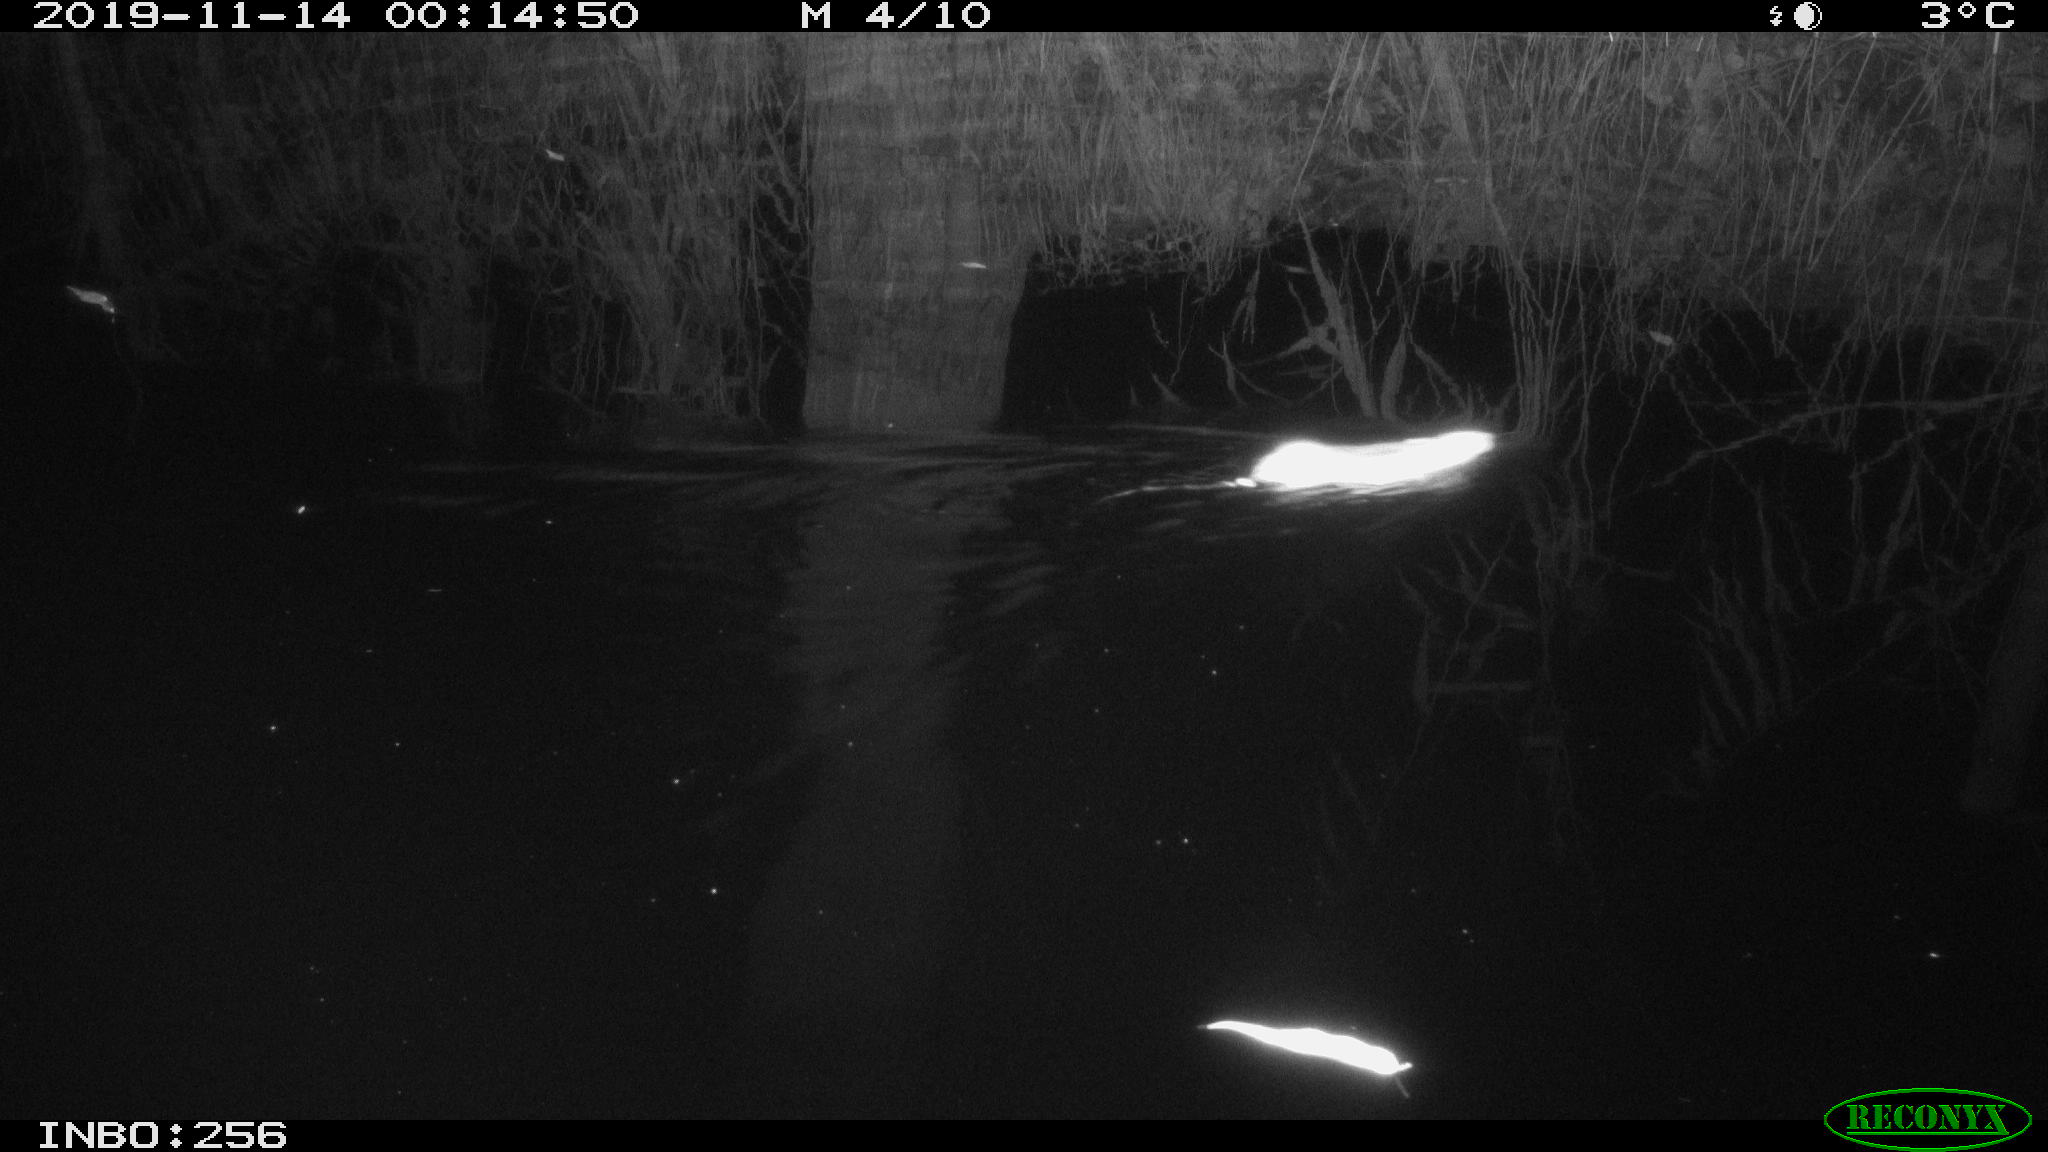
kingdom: Animalia
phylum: Chordata
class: Mammalia
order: Rodentia
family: Muridae
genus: Rattus
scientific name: Rattus norvegicus
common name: Brown rat
